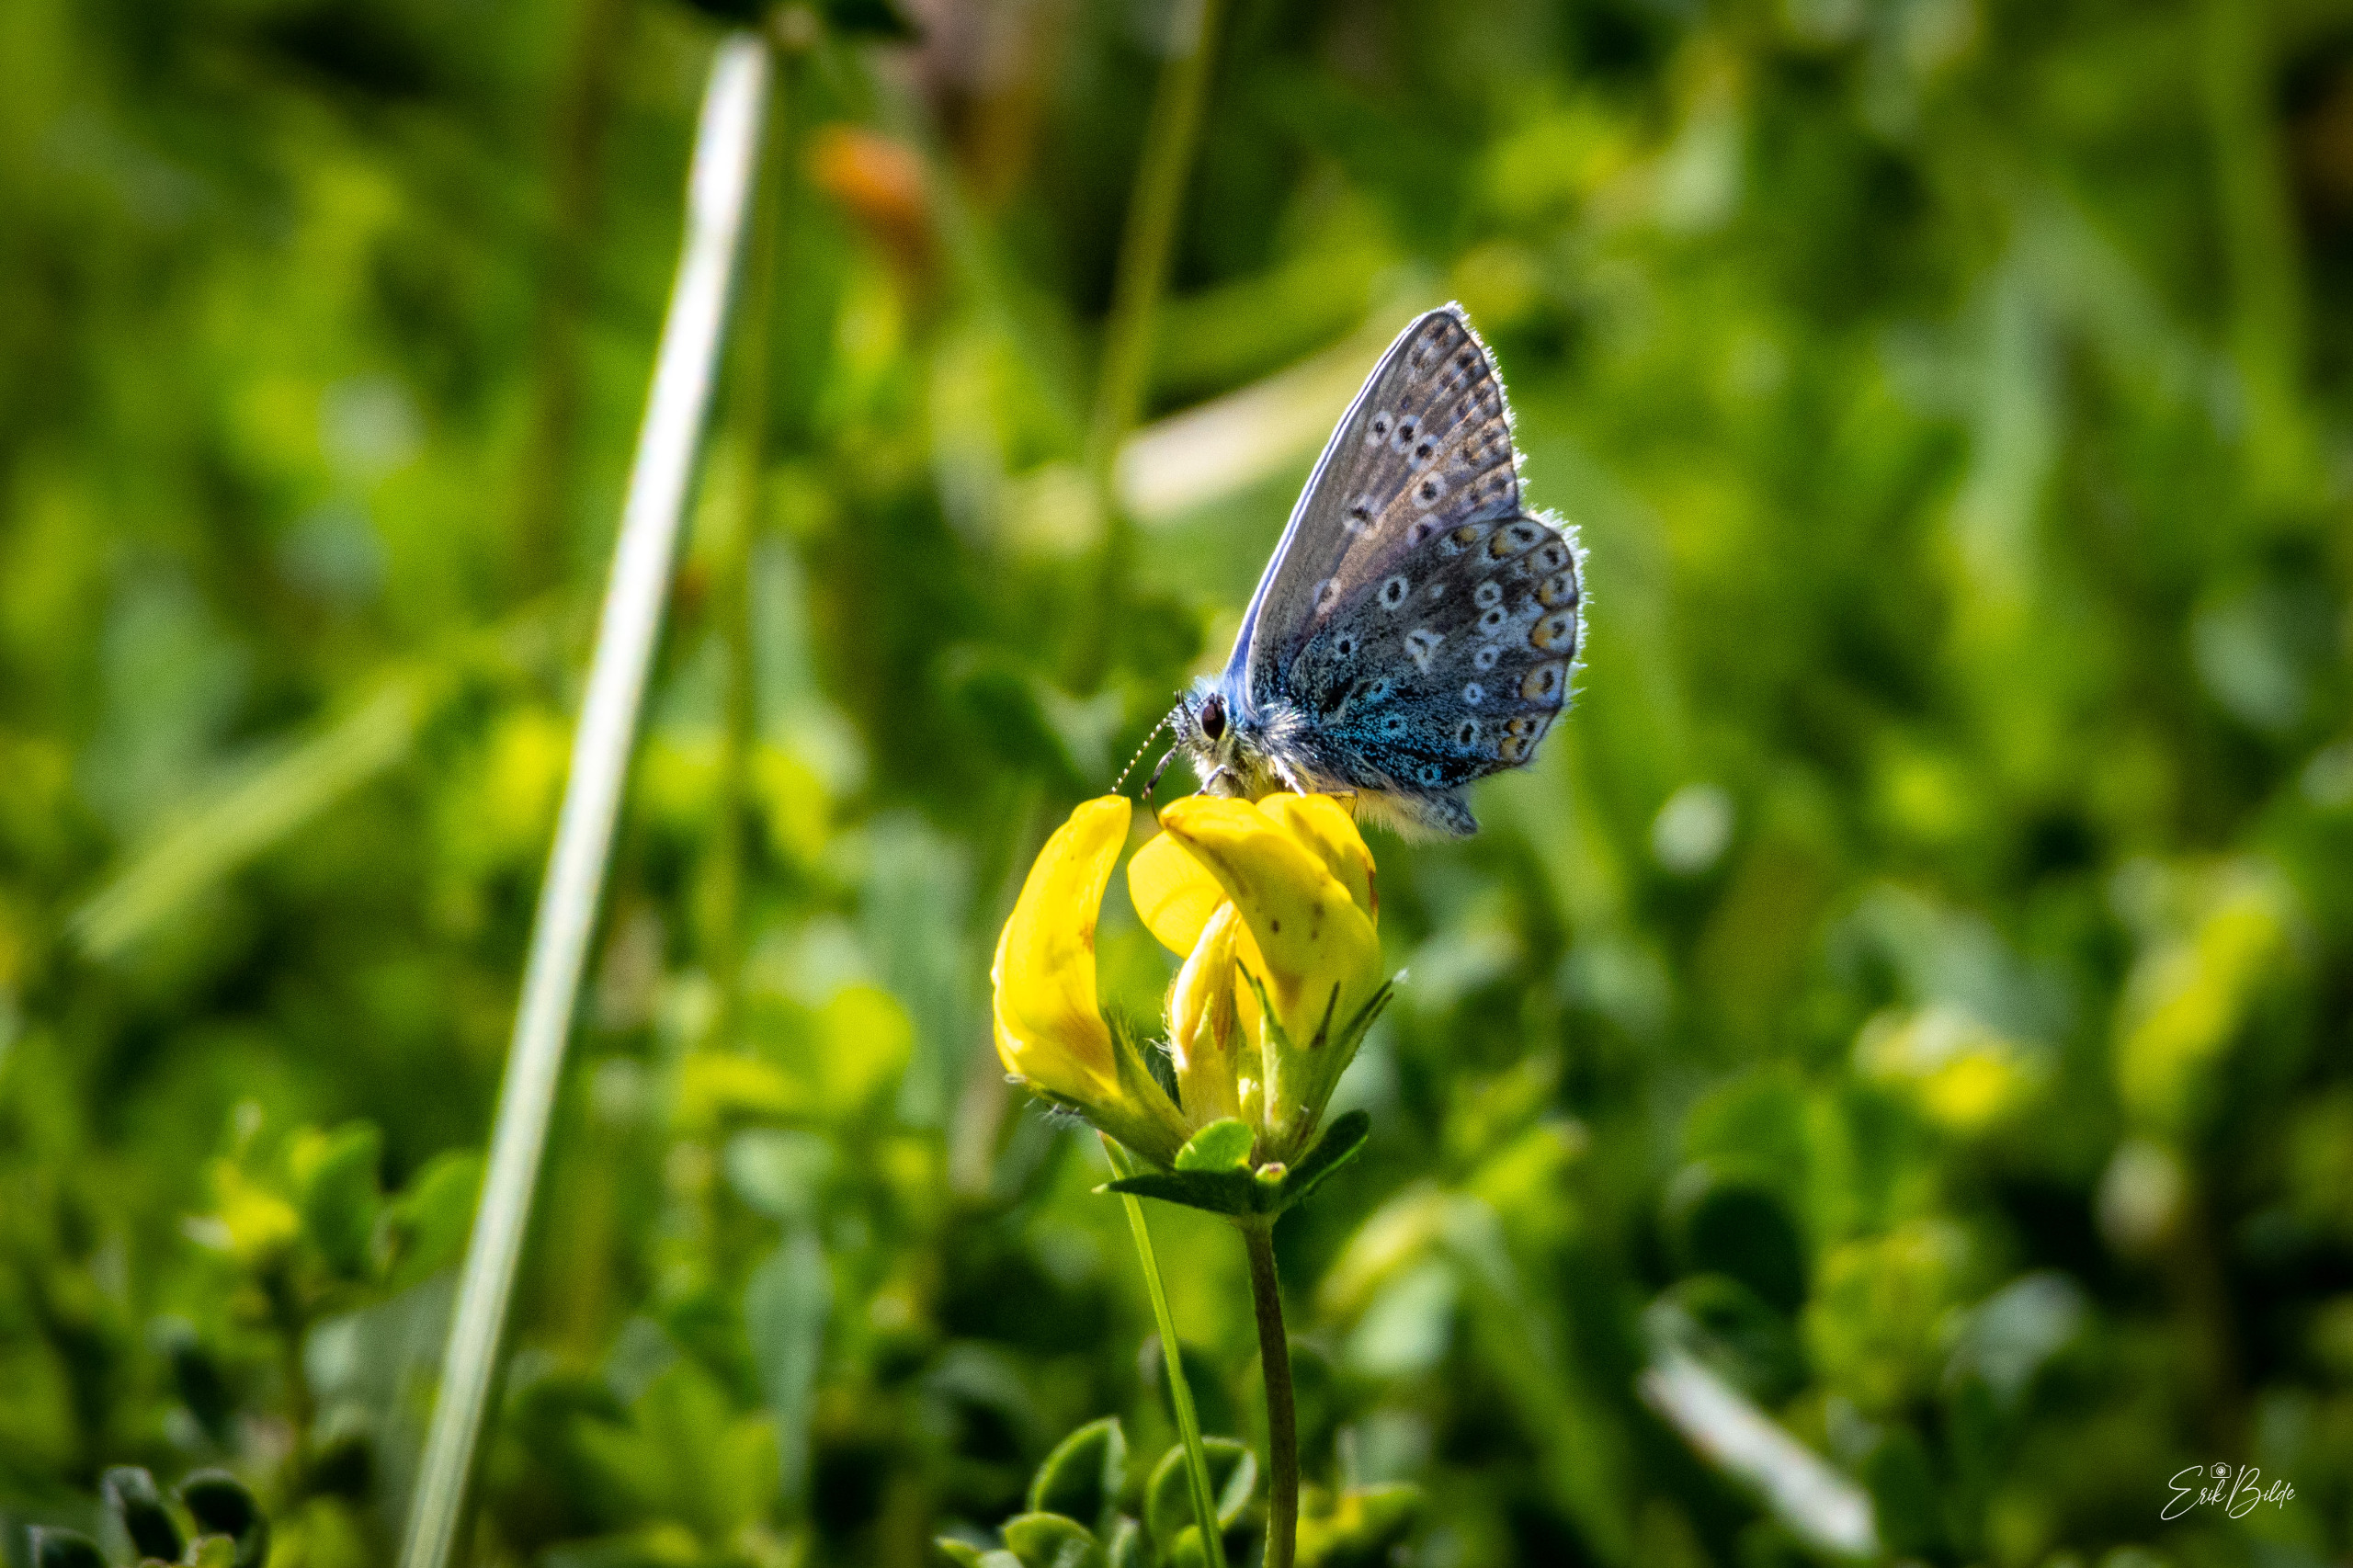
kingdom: Animalia
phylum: Arthropoda
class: Insecta
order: Lepidoptera
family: Lycaenidae
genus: Polyommatus
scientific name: Polyommatus icarus
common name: Almindelig blåfugl
